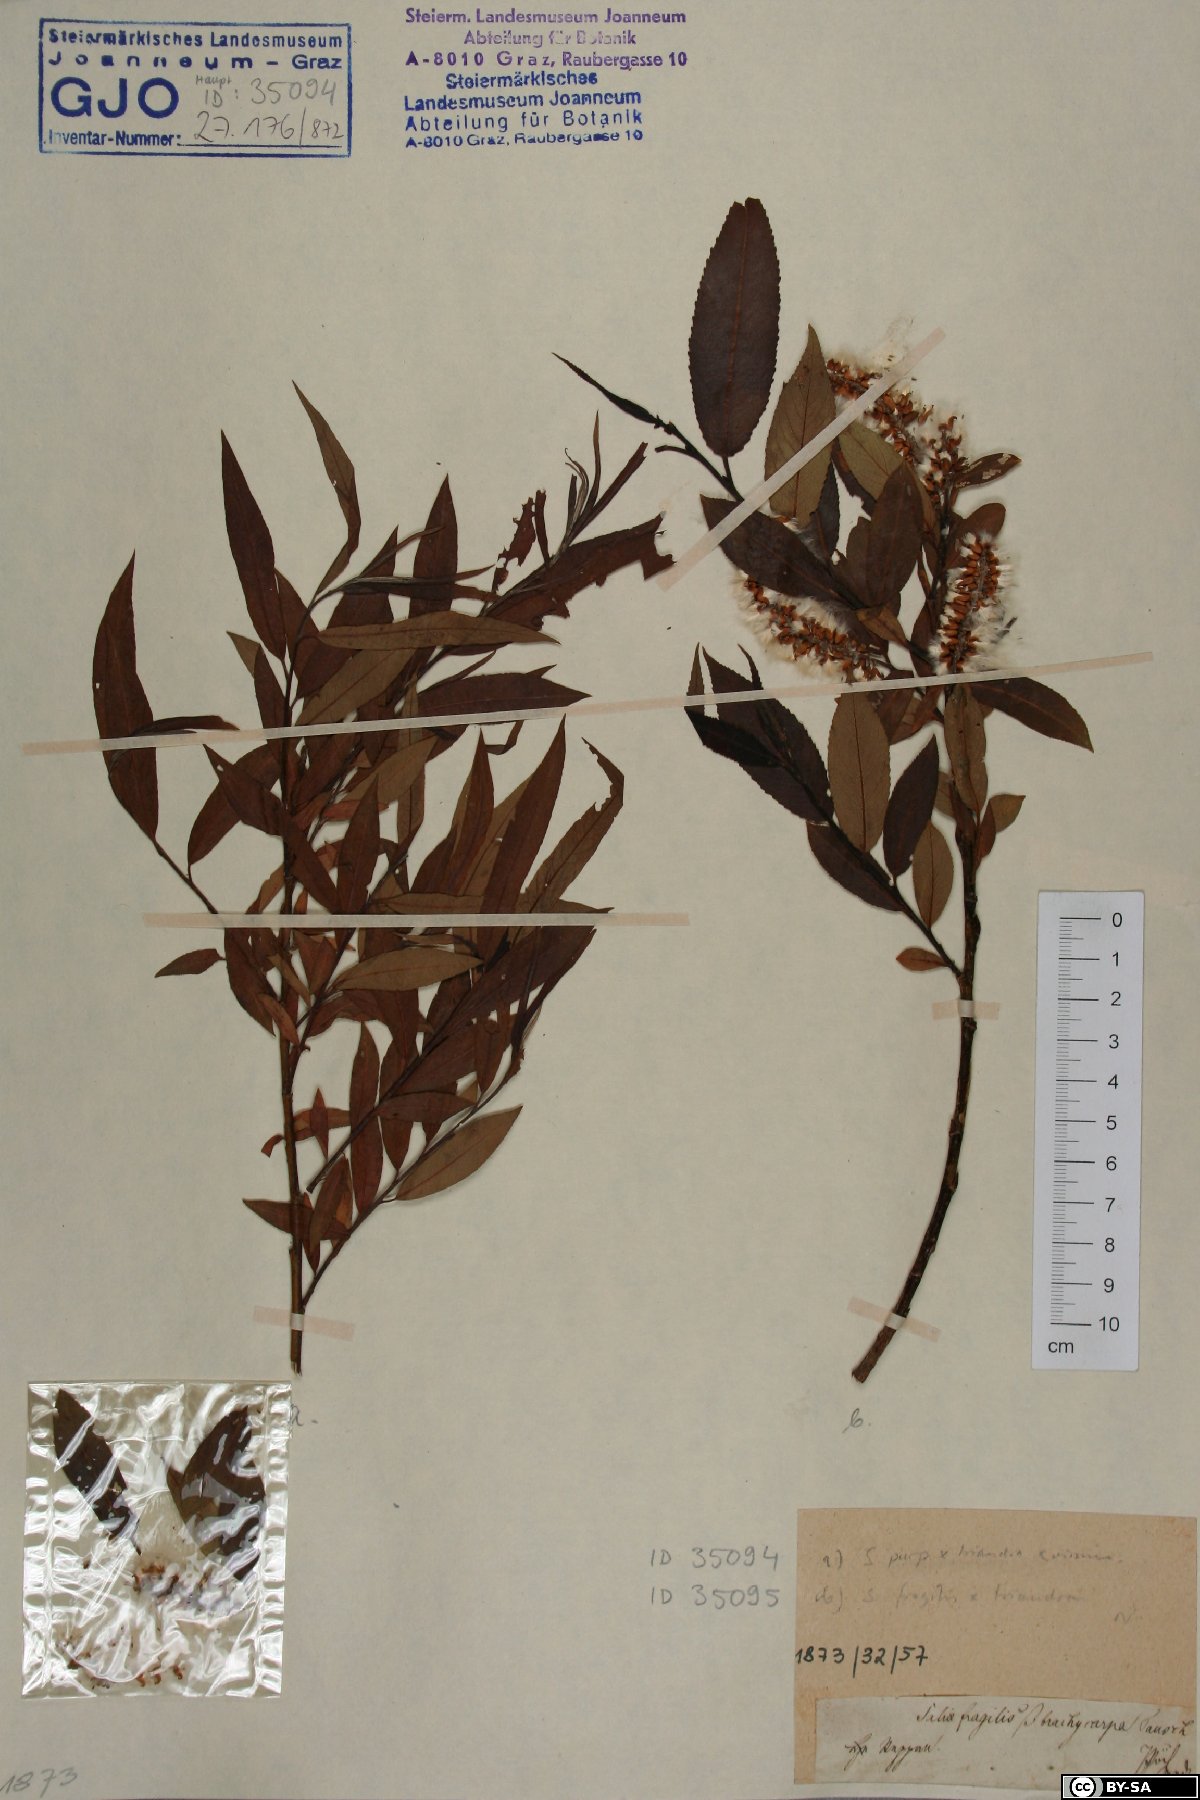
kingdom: Plantae
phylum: Tracheophyta
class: Magnoliopsida
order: Malpighiales
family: Salicaceae
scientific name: Salicaceae
